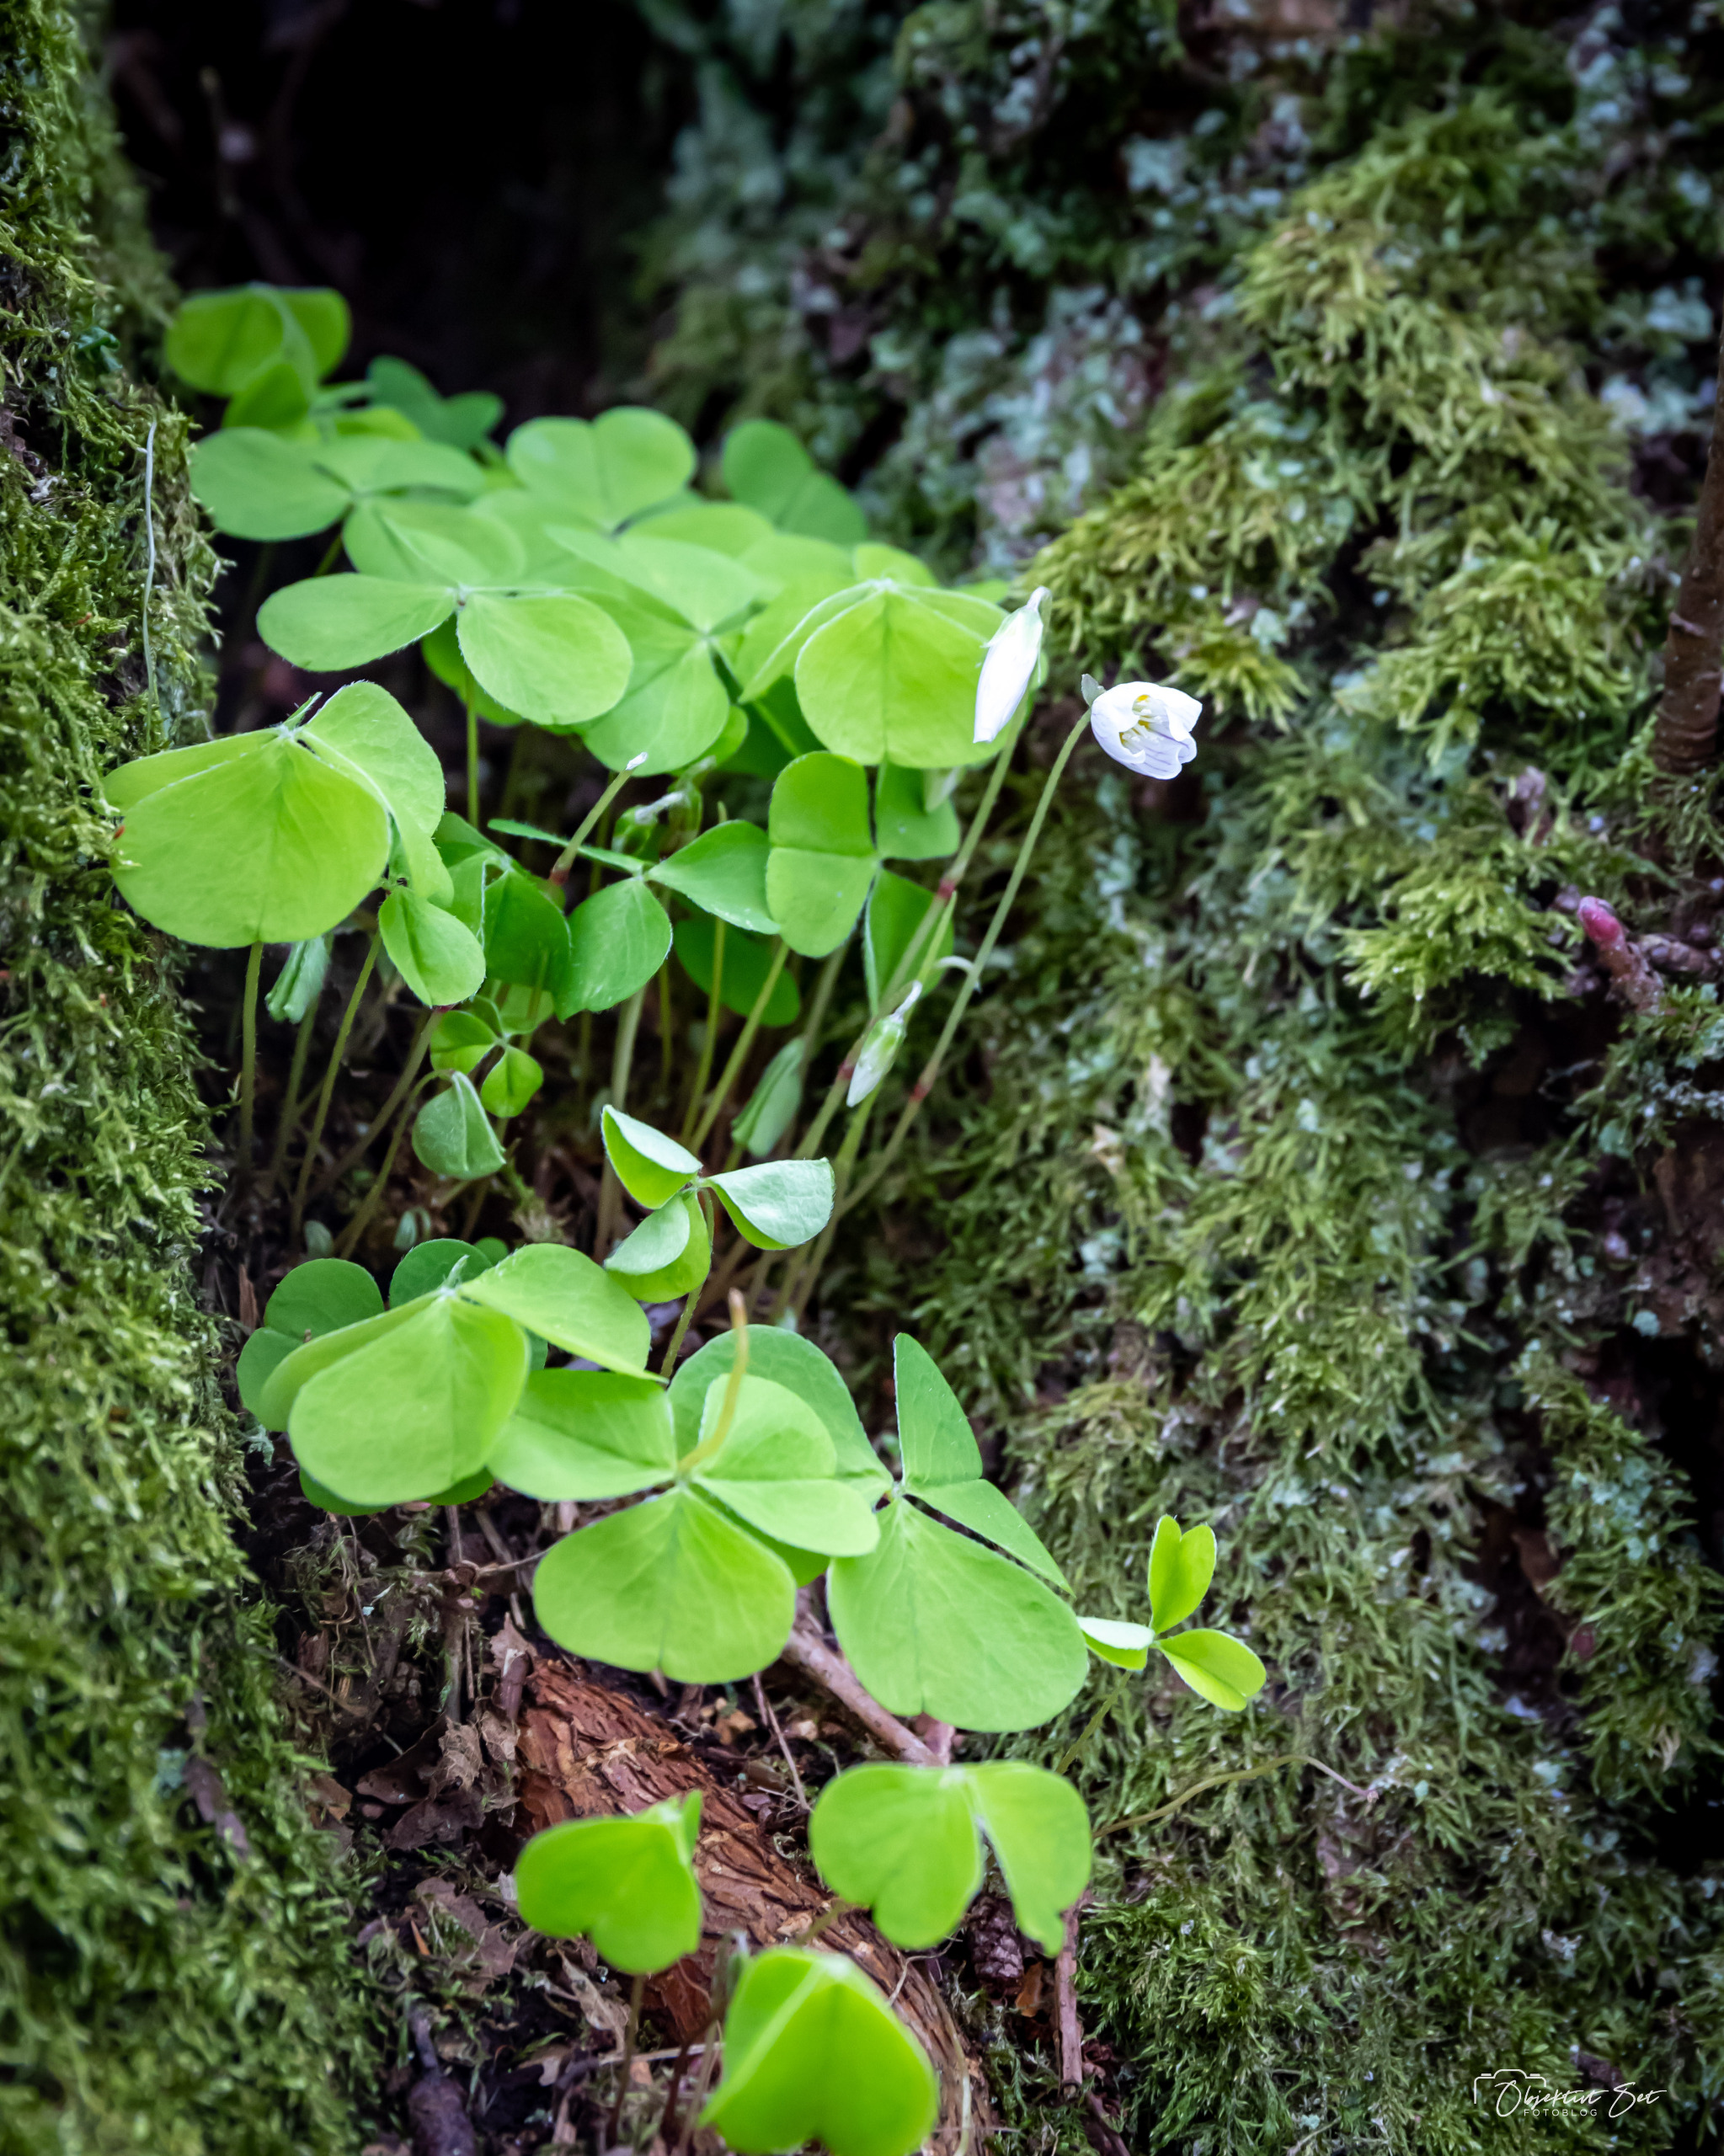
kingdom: Plantae
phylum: Tracheophyta
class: Magnoliopsida
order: Oxalidales
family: Oxalidaceae
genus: Oxalis
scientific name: Oxalis acetosella
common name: Skovsyre
